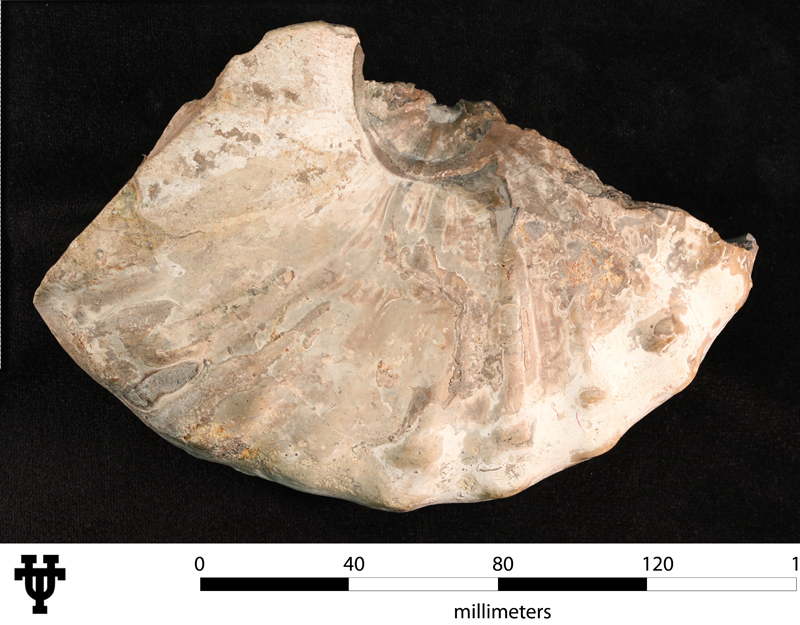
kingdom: Animalia
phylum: Mollusca
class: Cephalopoda
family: Acanthoceratidae
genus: Buchiceras
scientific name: Buchiceras
